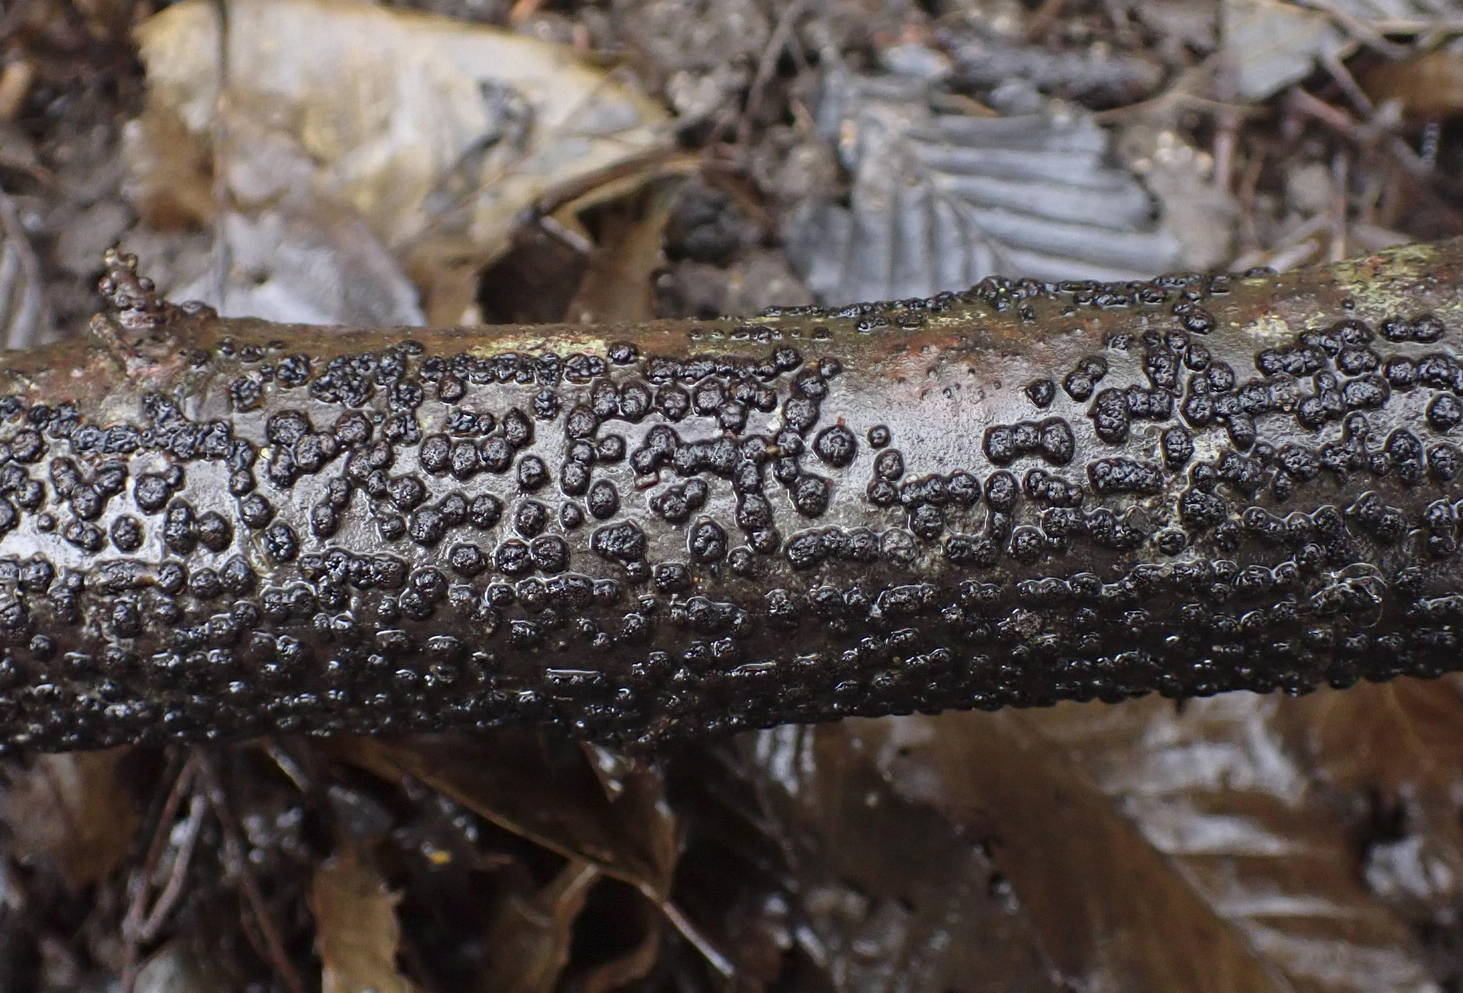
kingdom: Fungi
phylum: Ascomycota
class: Sordariomycetes
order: Xylariales
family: Melogrammataceae
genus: Melogramma
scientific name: Melogramma campylosporum
